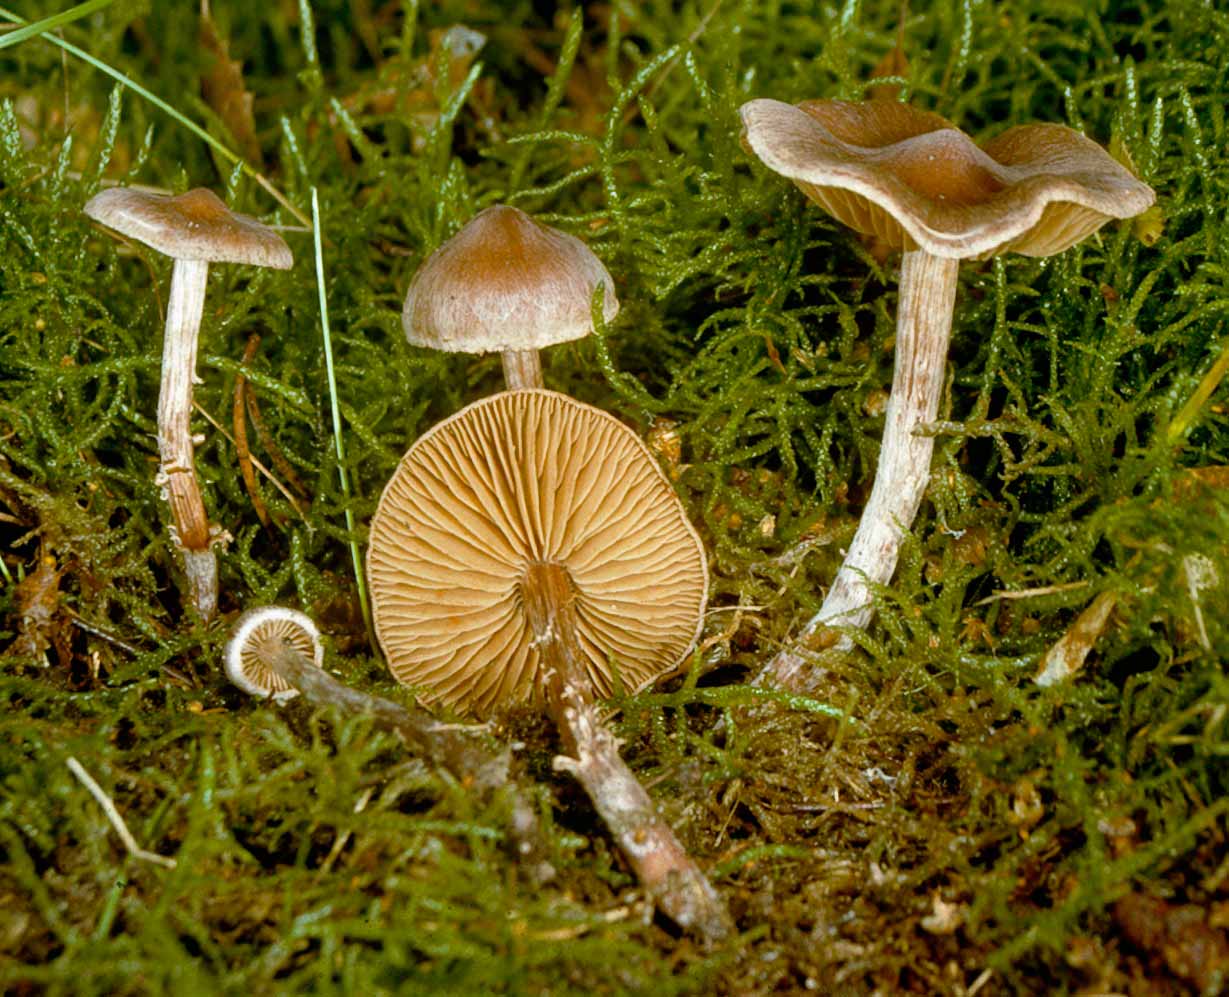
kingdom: Fungi
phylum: Basidiomycota
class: Agaricomycetes
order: Agaricales
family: Cortinariaceae
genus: Cortinarius
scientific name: Cortinarius fuscoalbus
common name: lysbladet slørhat
